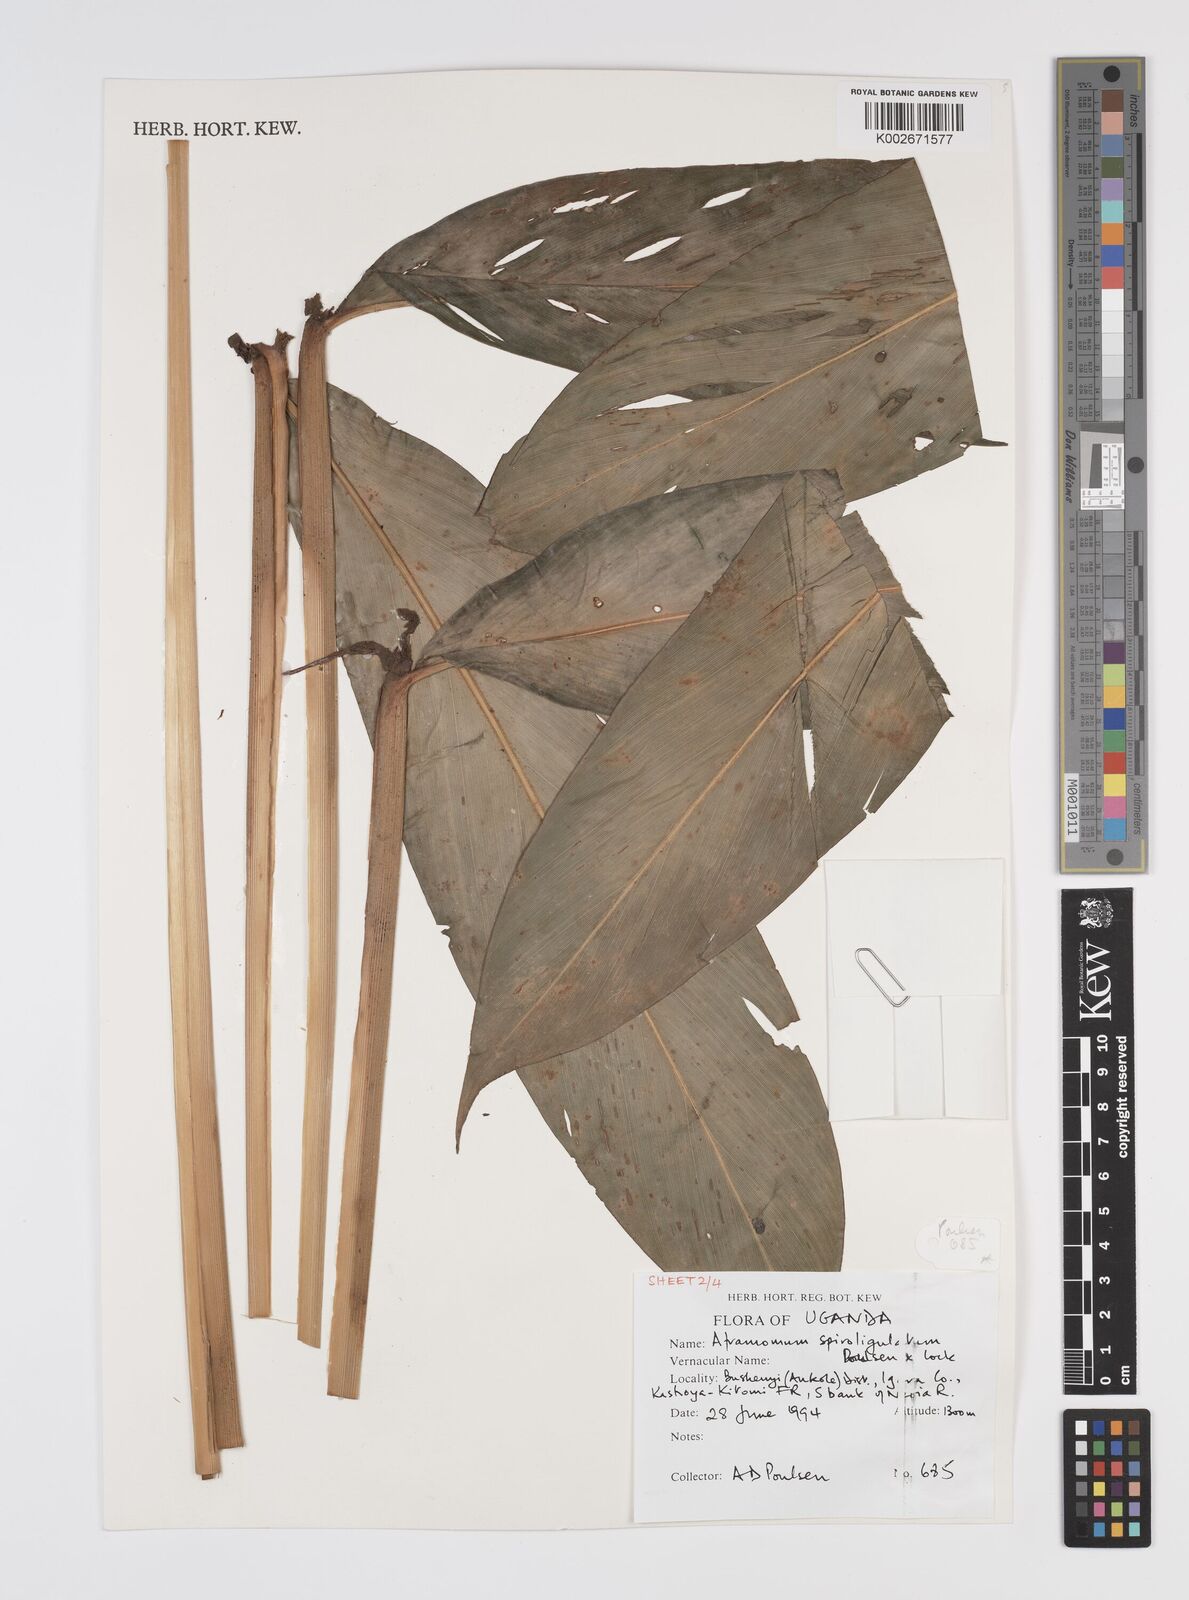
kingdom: Plantae
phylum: Tracheophyta
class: Liliopsida
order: Zingiberales
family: Zingiberaceae
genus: Aframomum
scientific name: Aframomum spiroligulatum
